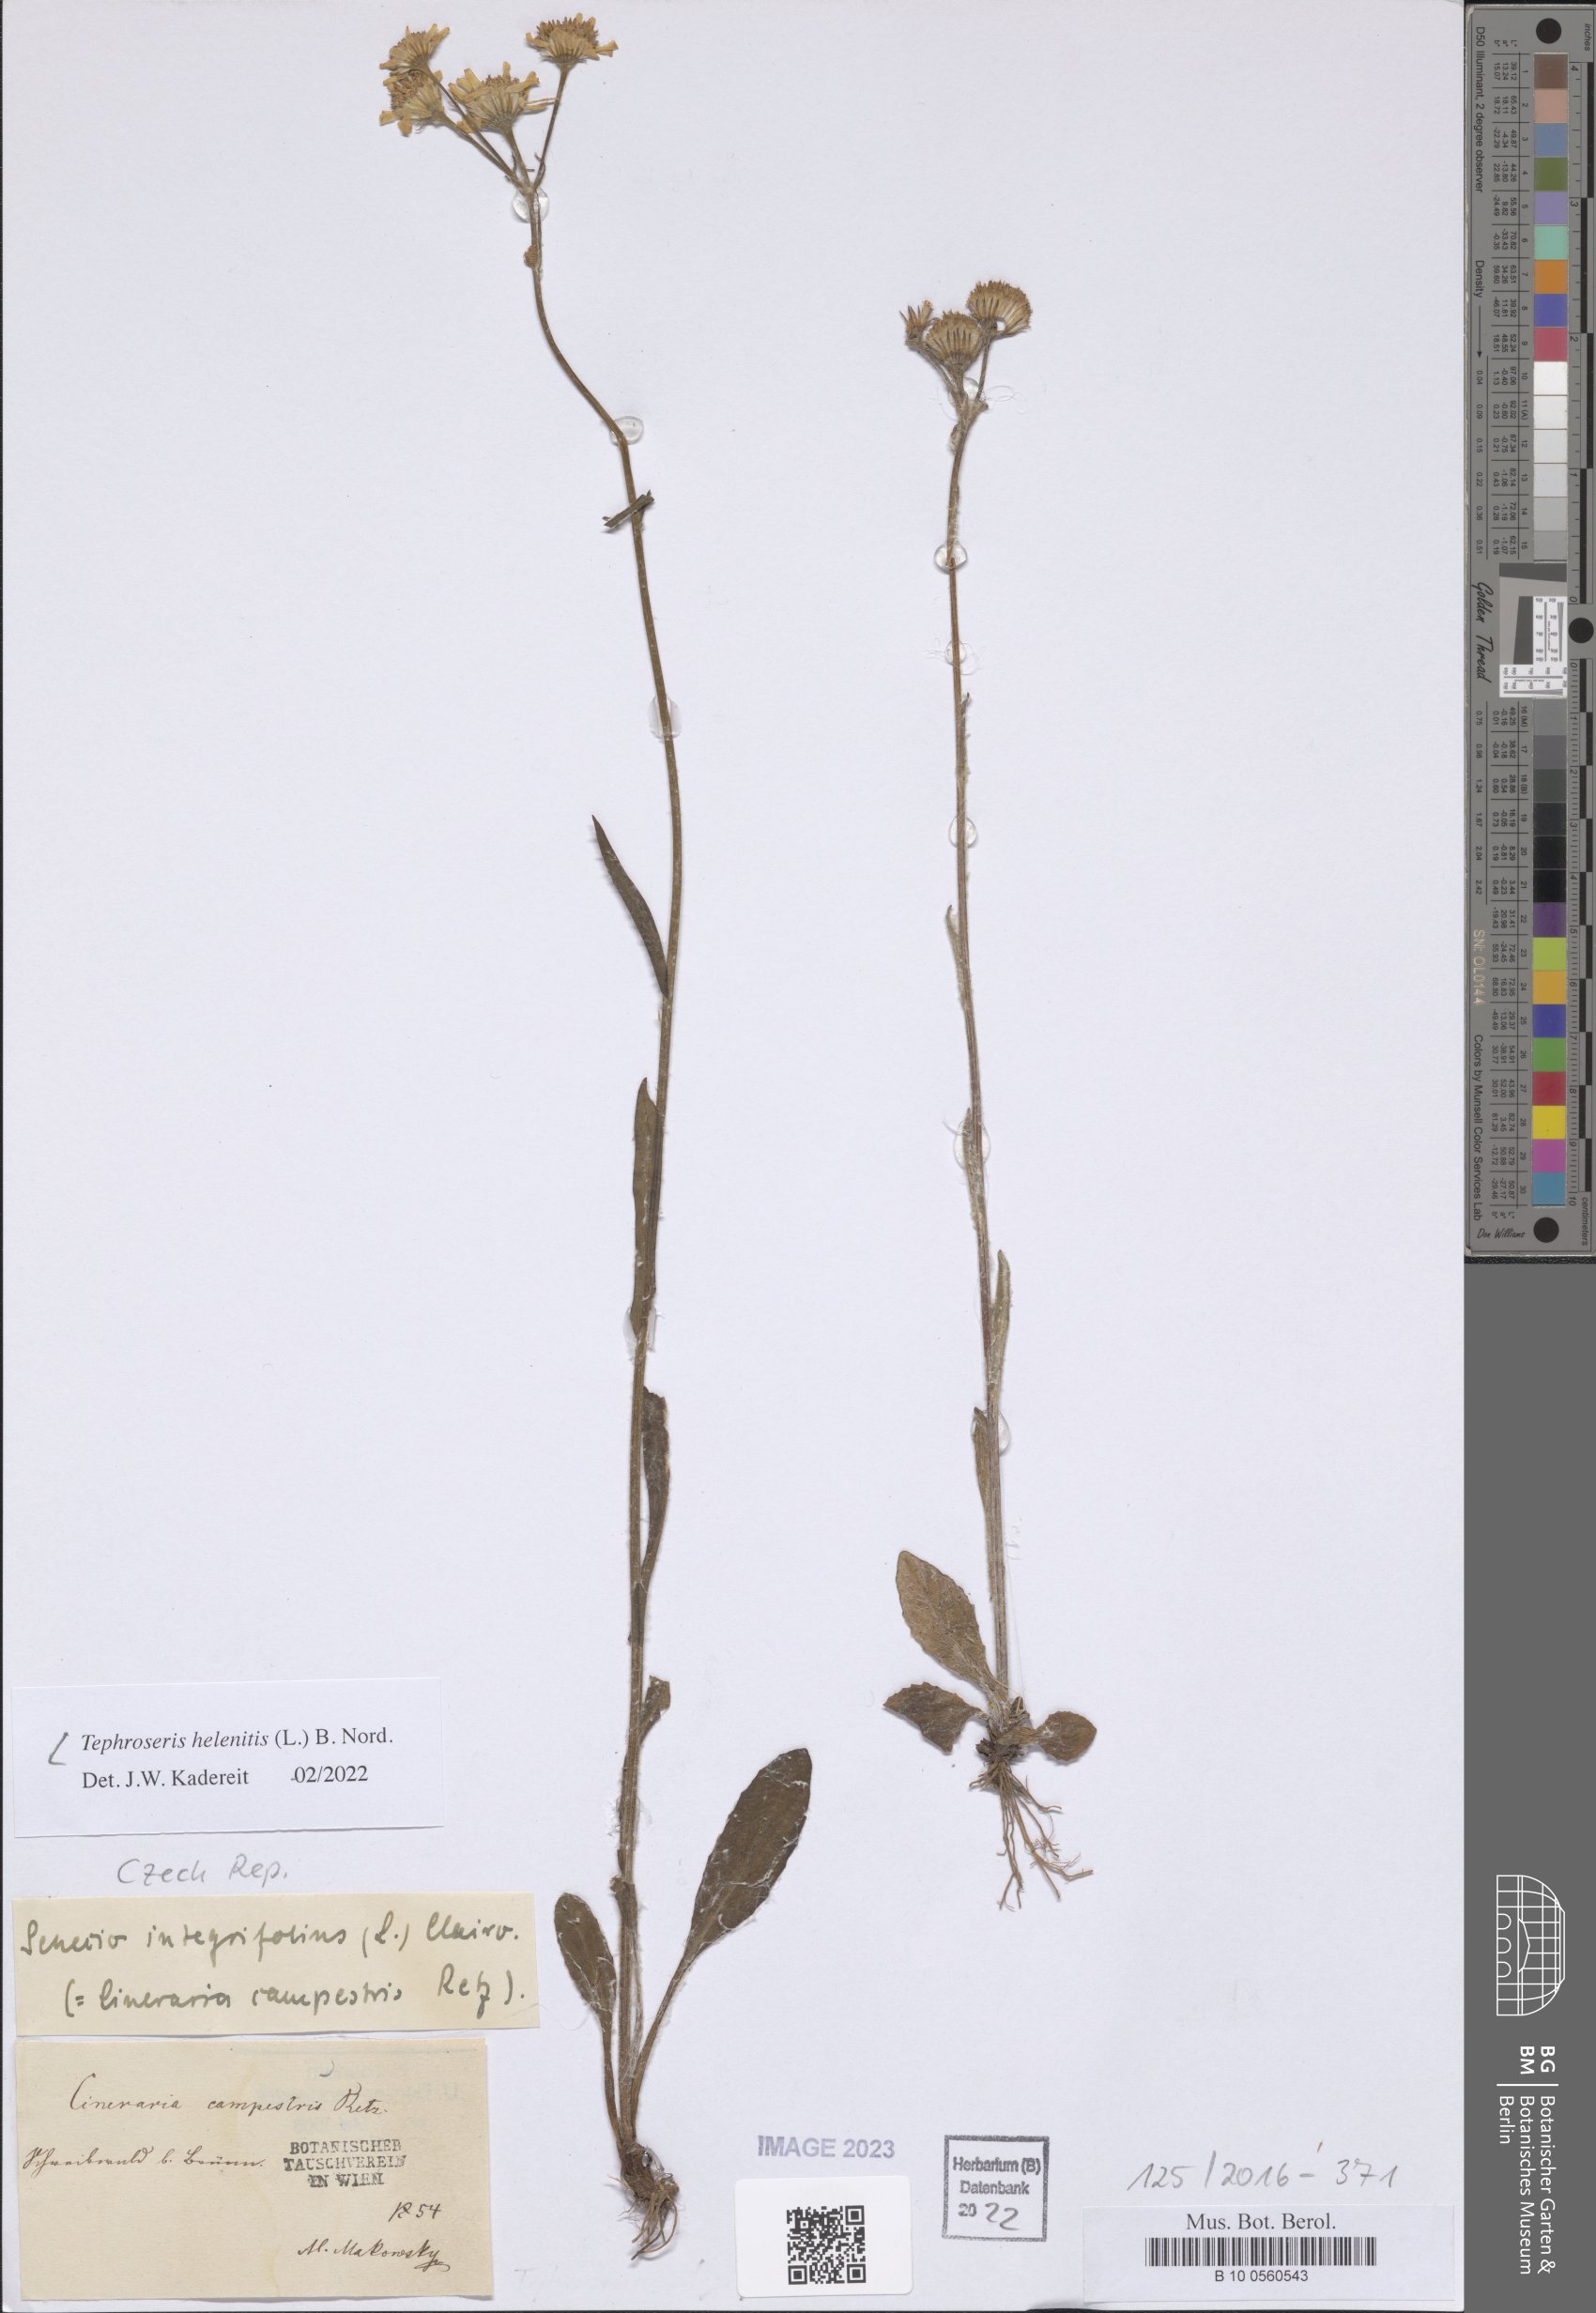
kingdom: Plantae
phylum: Tracheophyta
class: Magnoliopsida
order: Asterales
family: Asteraceae
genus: Tephroseris
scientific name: Tephroseris helenitis
